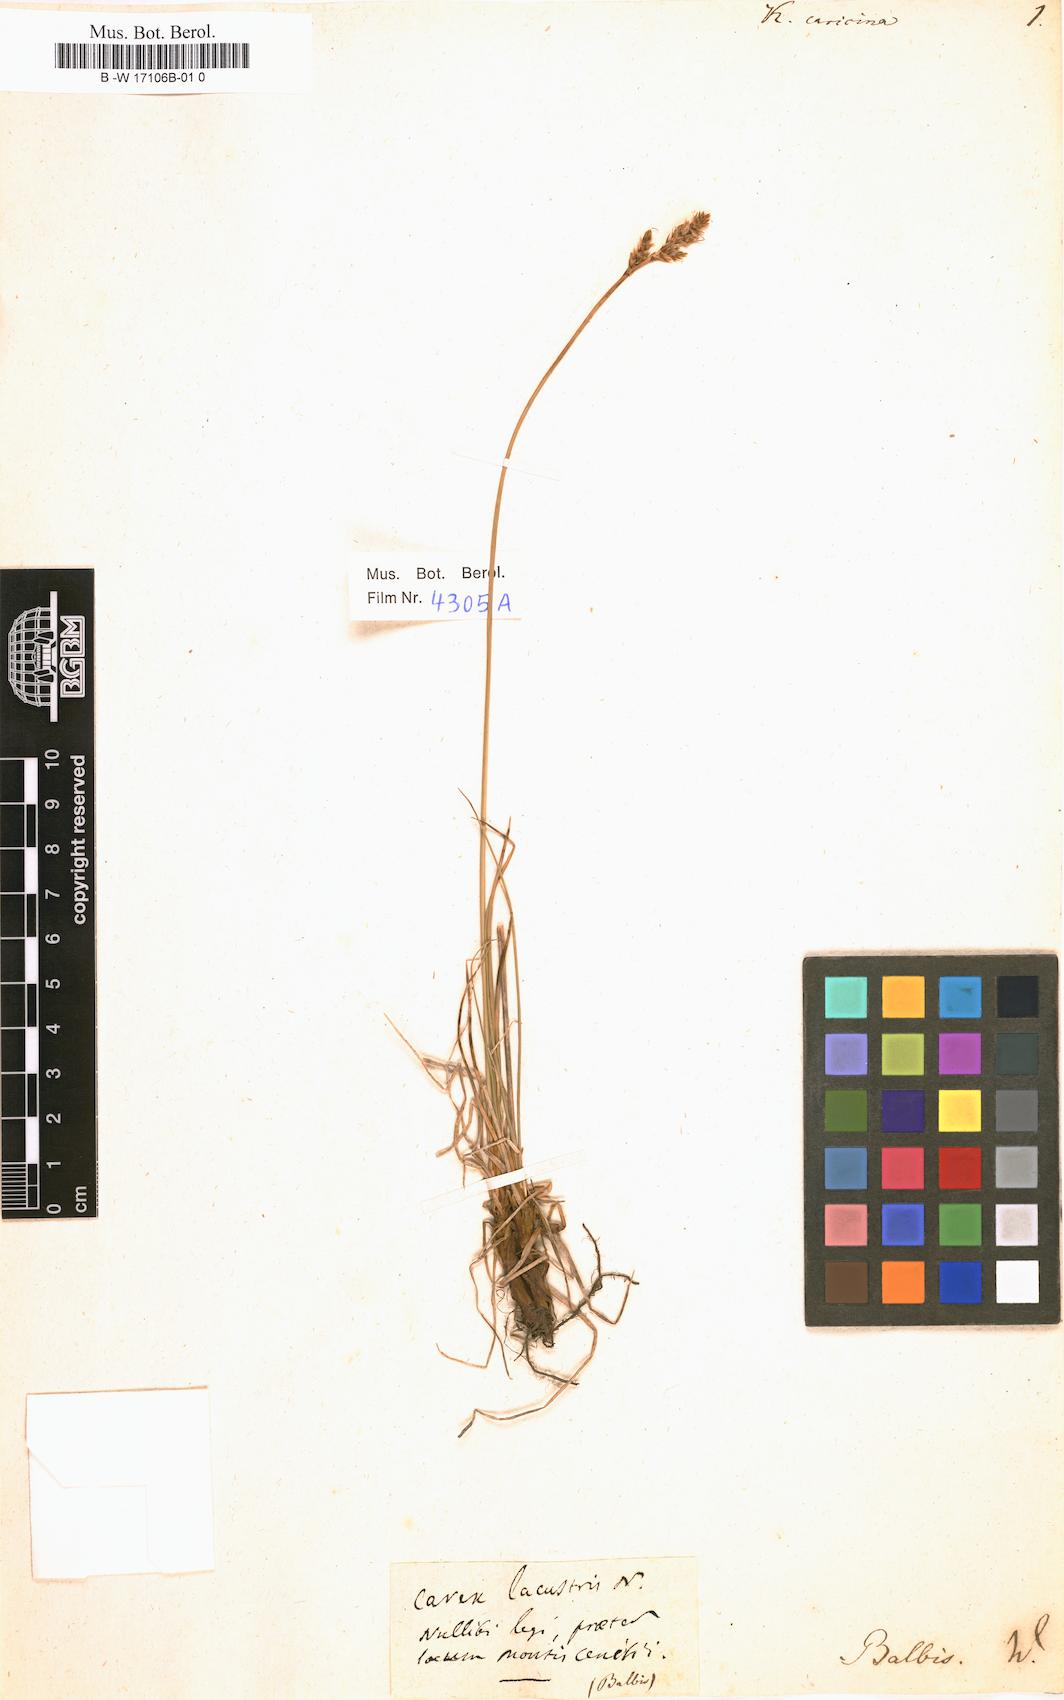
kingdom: Plantae
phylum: Tracheophyta
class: Liliopsida
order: Poales
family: Cyperaceae
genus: Carex
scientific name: Carex simpliciuscula
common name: Simple bog sedge
